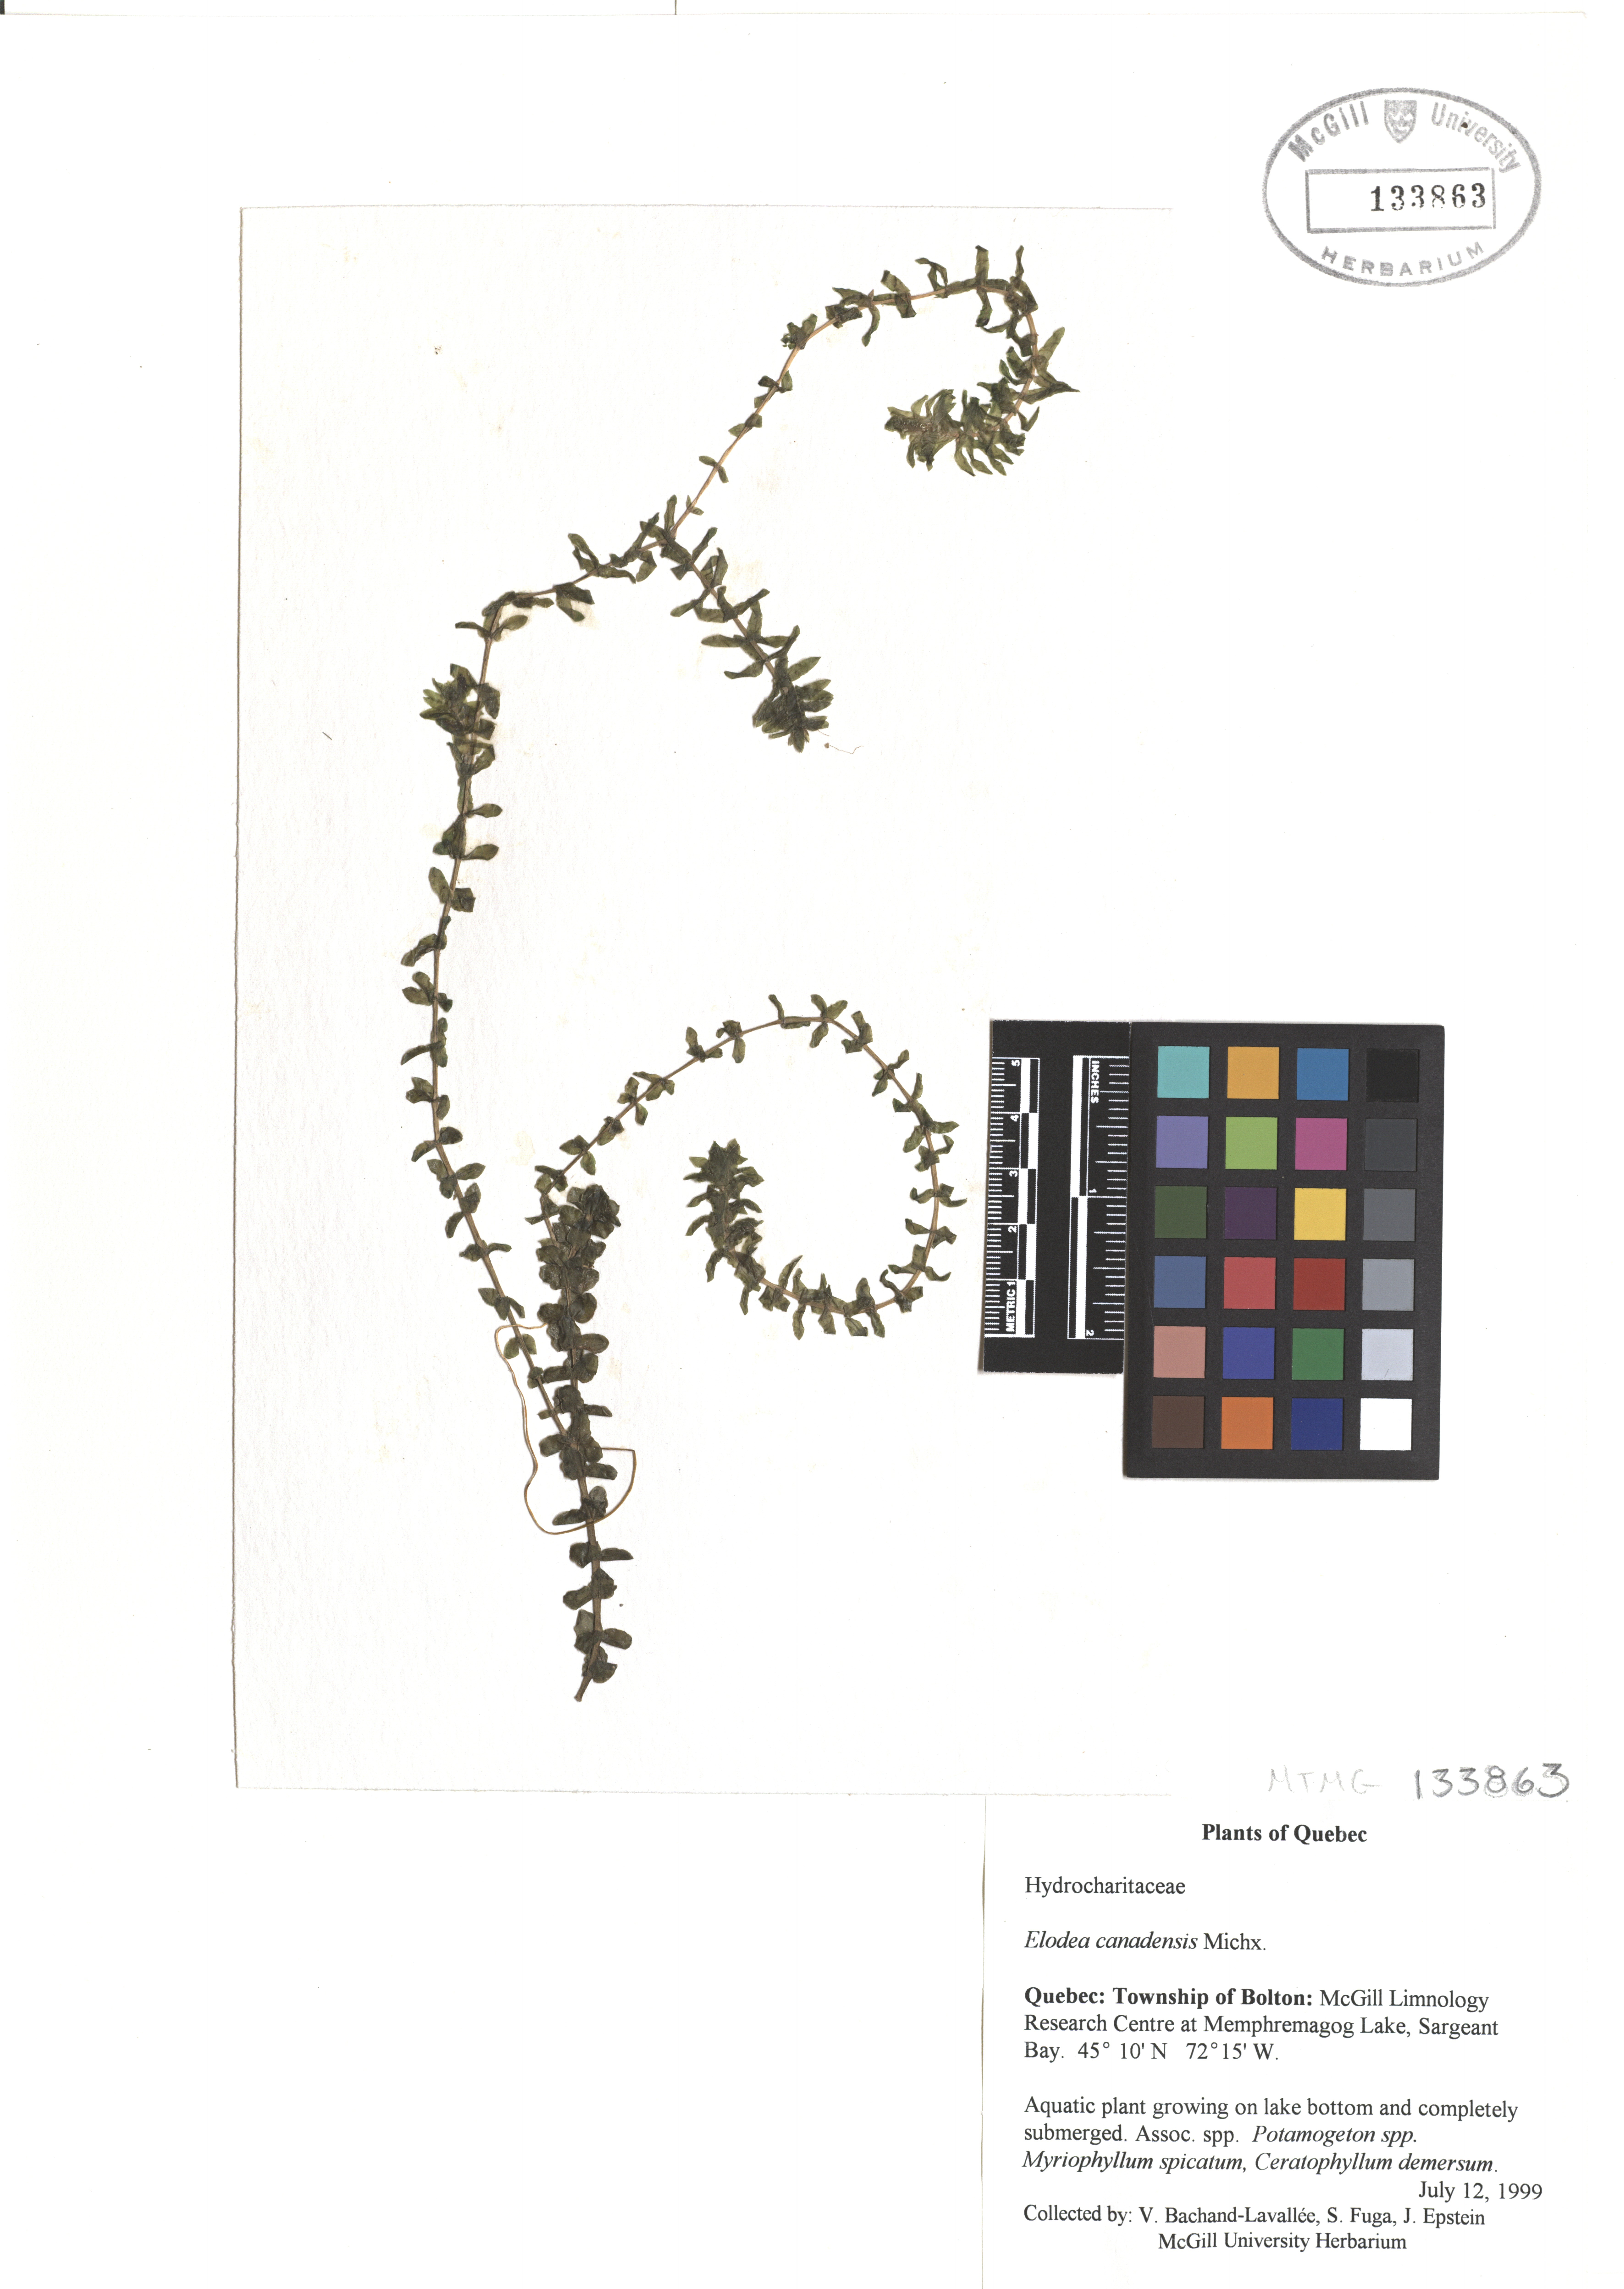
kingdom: Plantae
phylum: Tracheophyta
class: Liliopsida
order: Alismatales
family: Hydrocharitaceae
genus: Elodea
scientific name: Elodea canadensis
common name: Canadian waterweed
